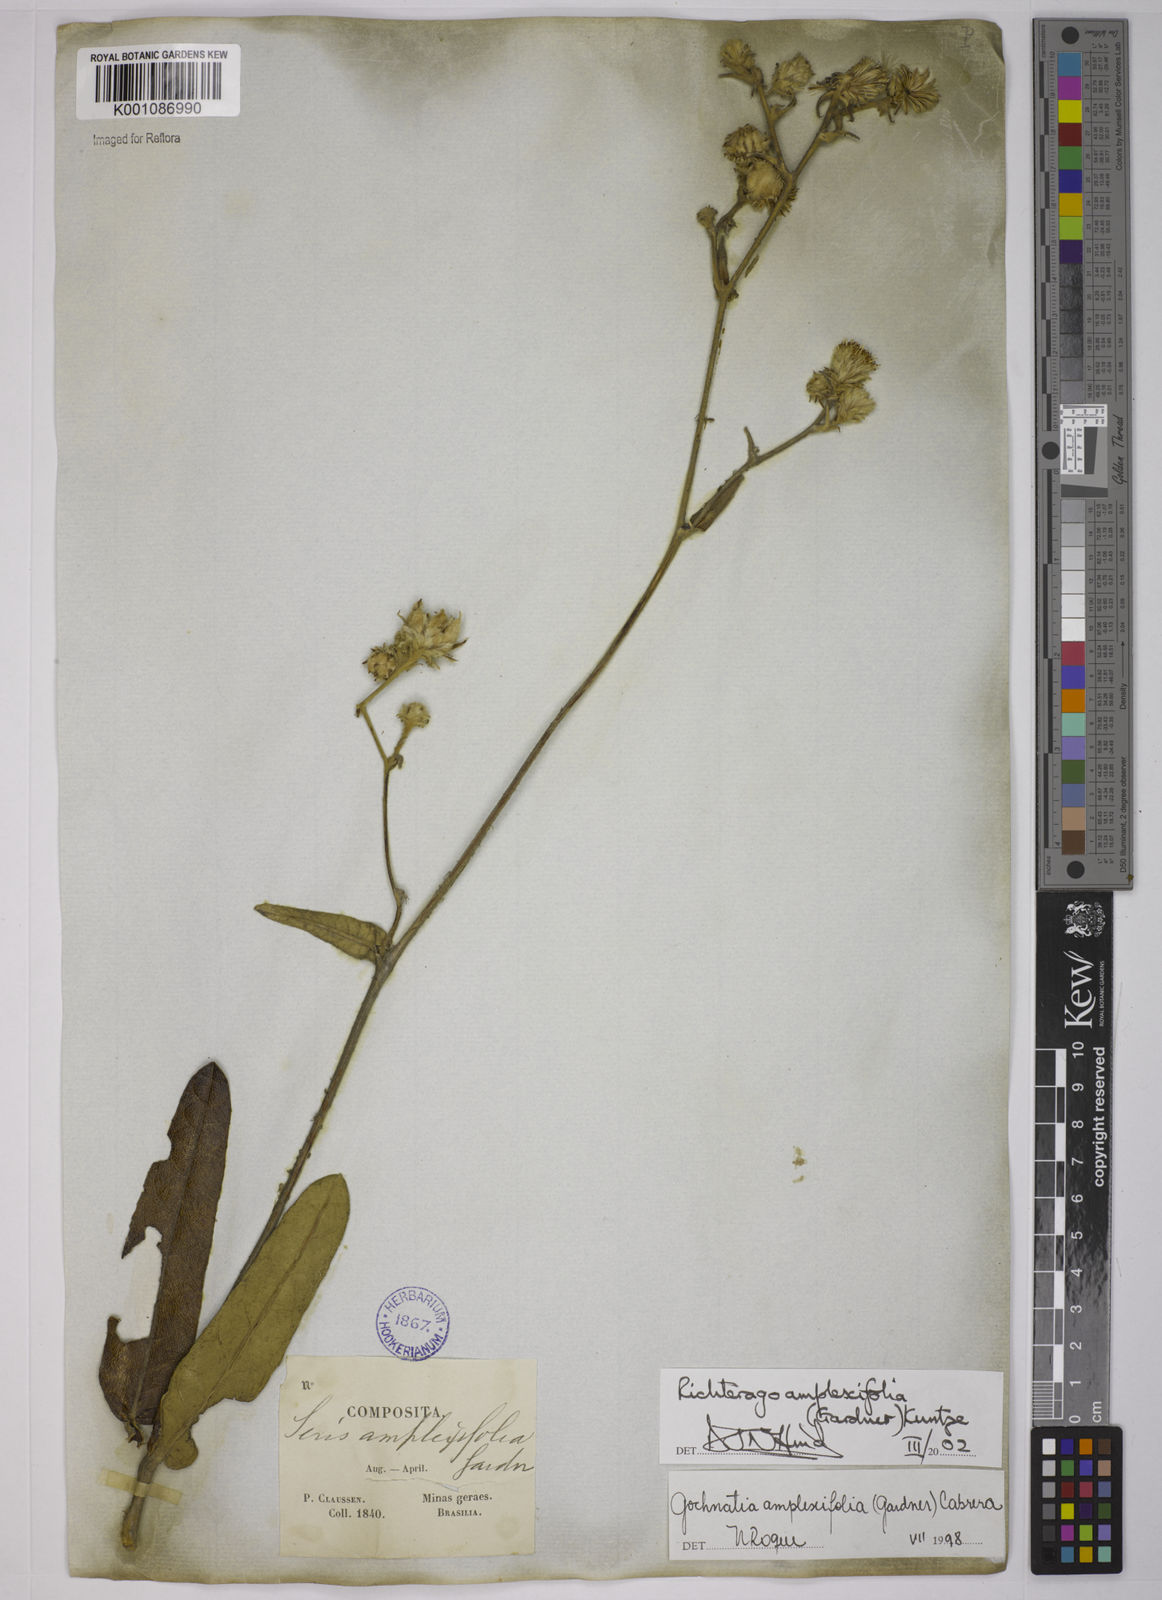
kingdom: Plantae
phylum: Tracheophyta
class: Magnoliopsida
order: Asterales
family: Asteraceae
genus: Richterago
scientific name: Richterago amplexifolia
